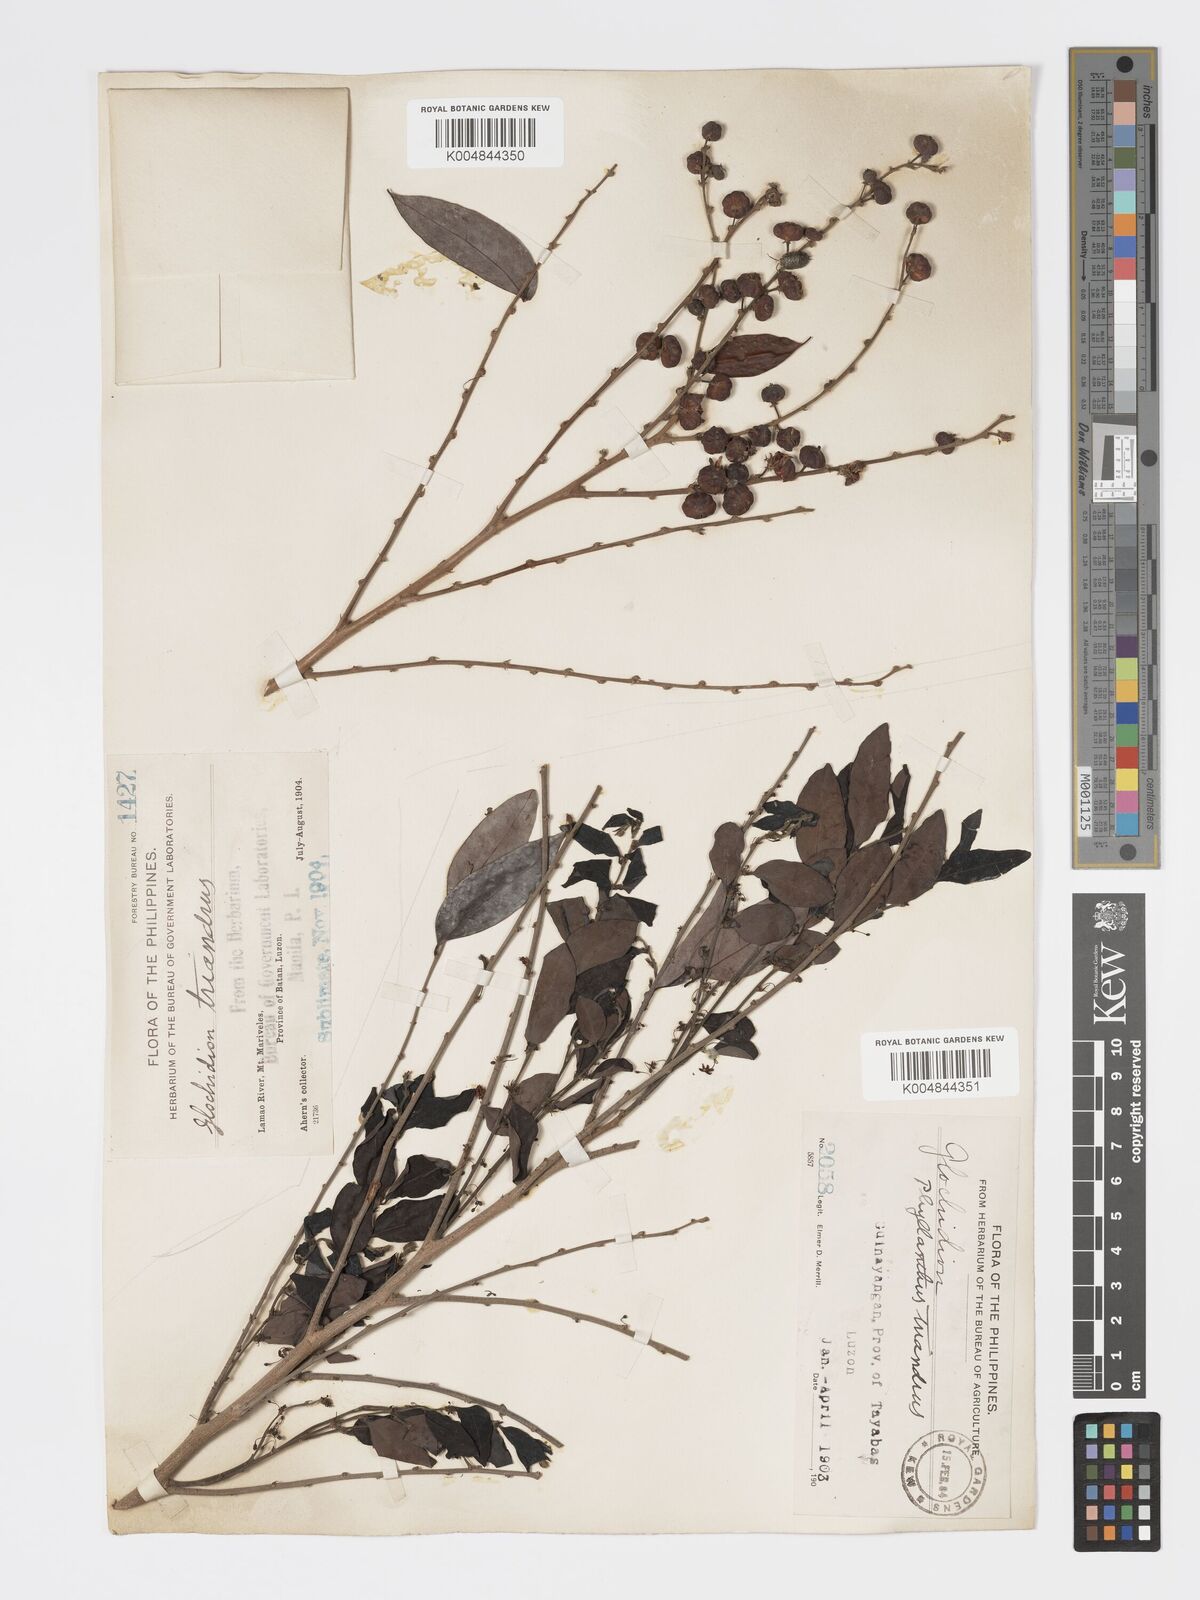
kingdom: Plantae
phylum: Tracheophyta
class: Magnoliopsida
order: Malpighiales
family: Phyllanthaceae
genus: Glochidion
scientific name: Glochidion triandrum
